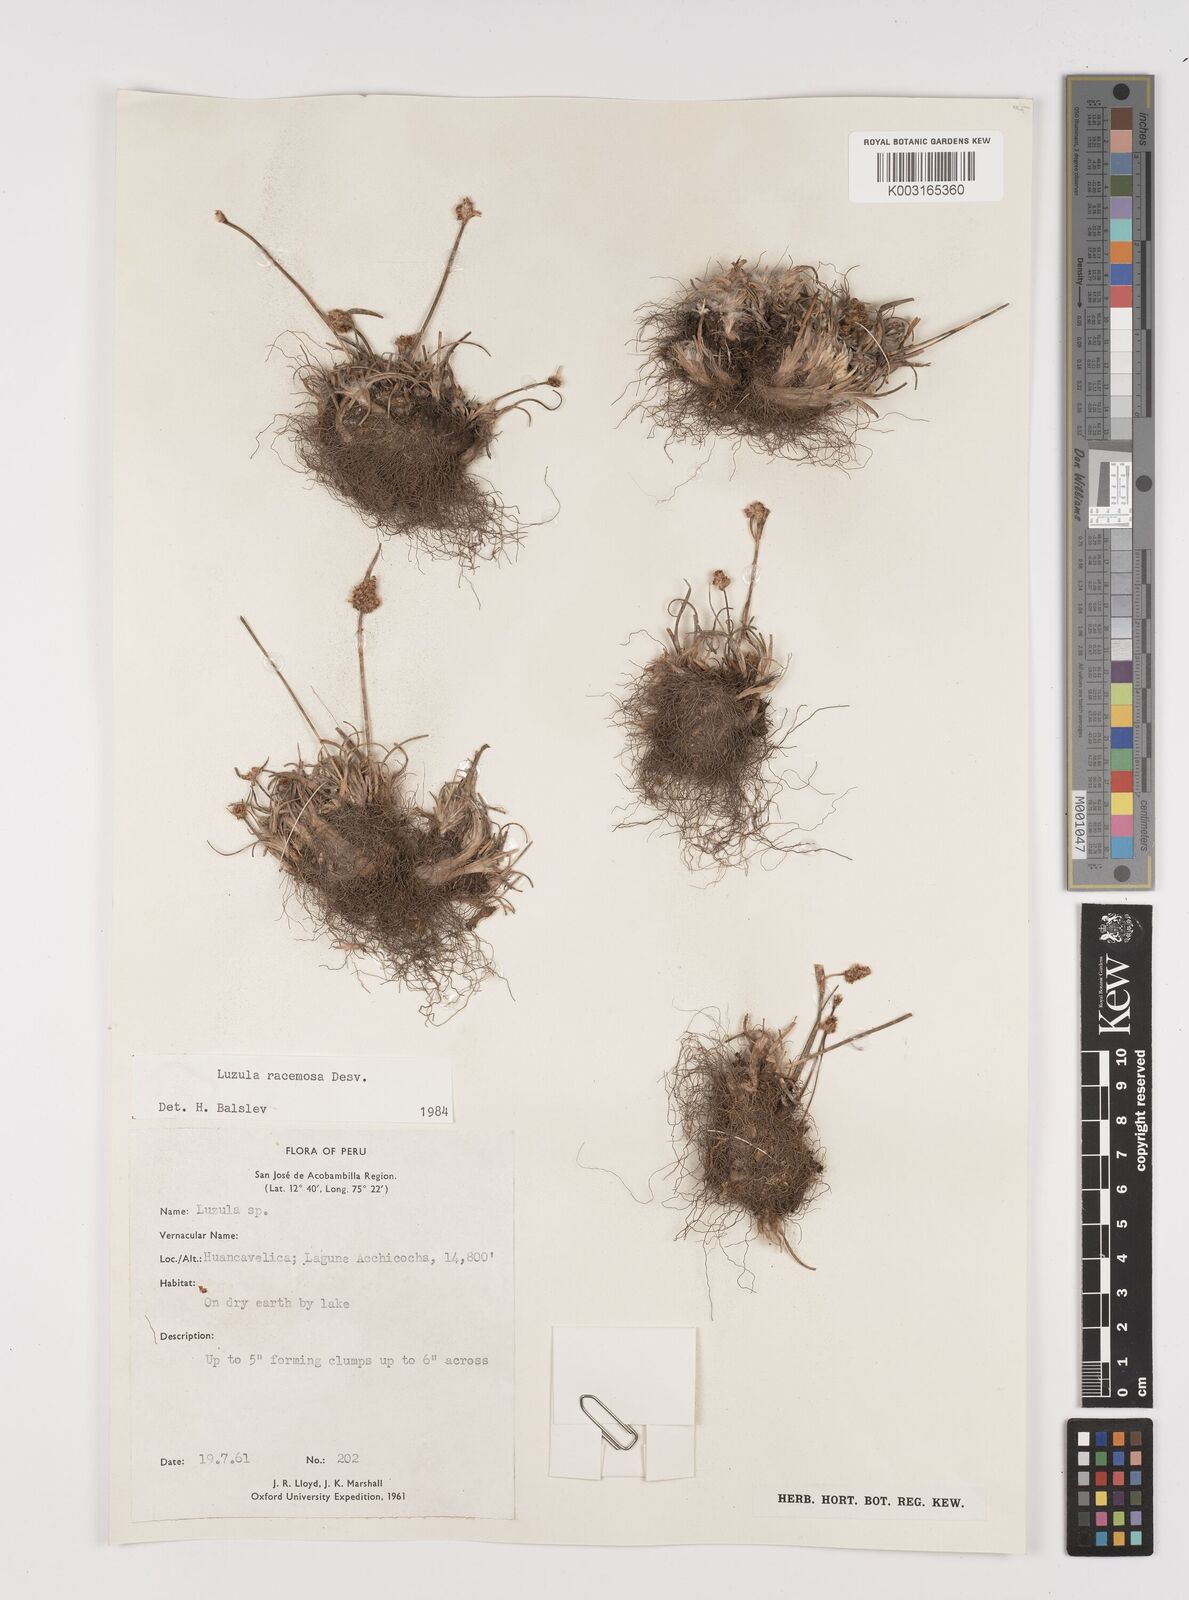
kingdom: Plantae
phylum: Tracheophyta
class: Liliopsida
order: Poales
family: Juncaceae
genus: Luzula
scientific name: Luzula racemosa
